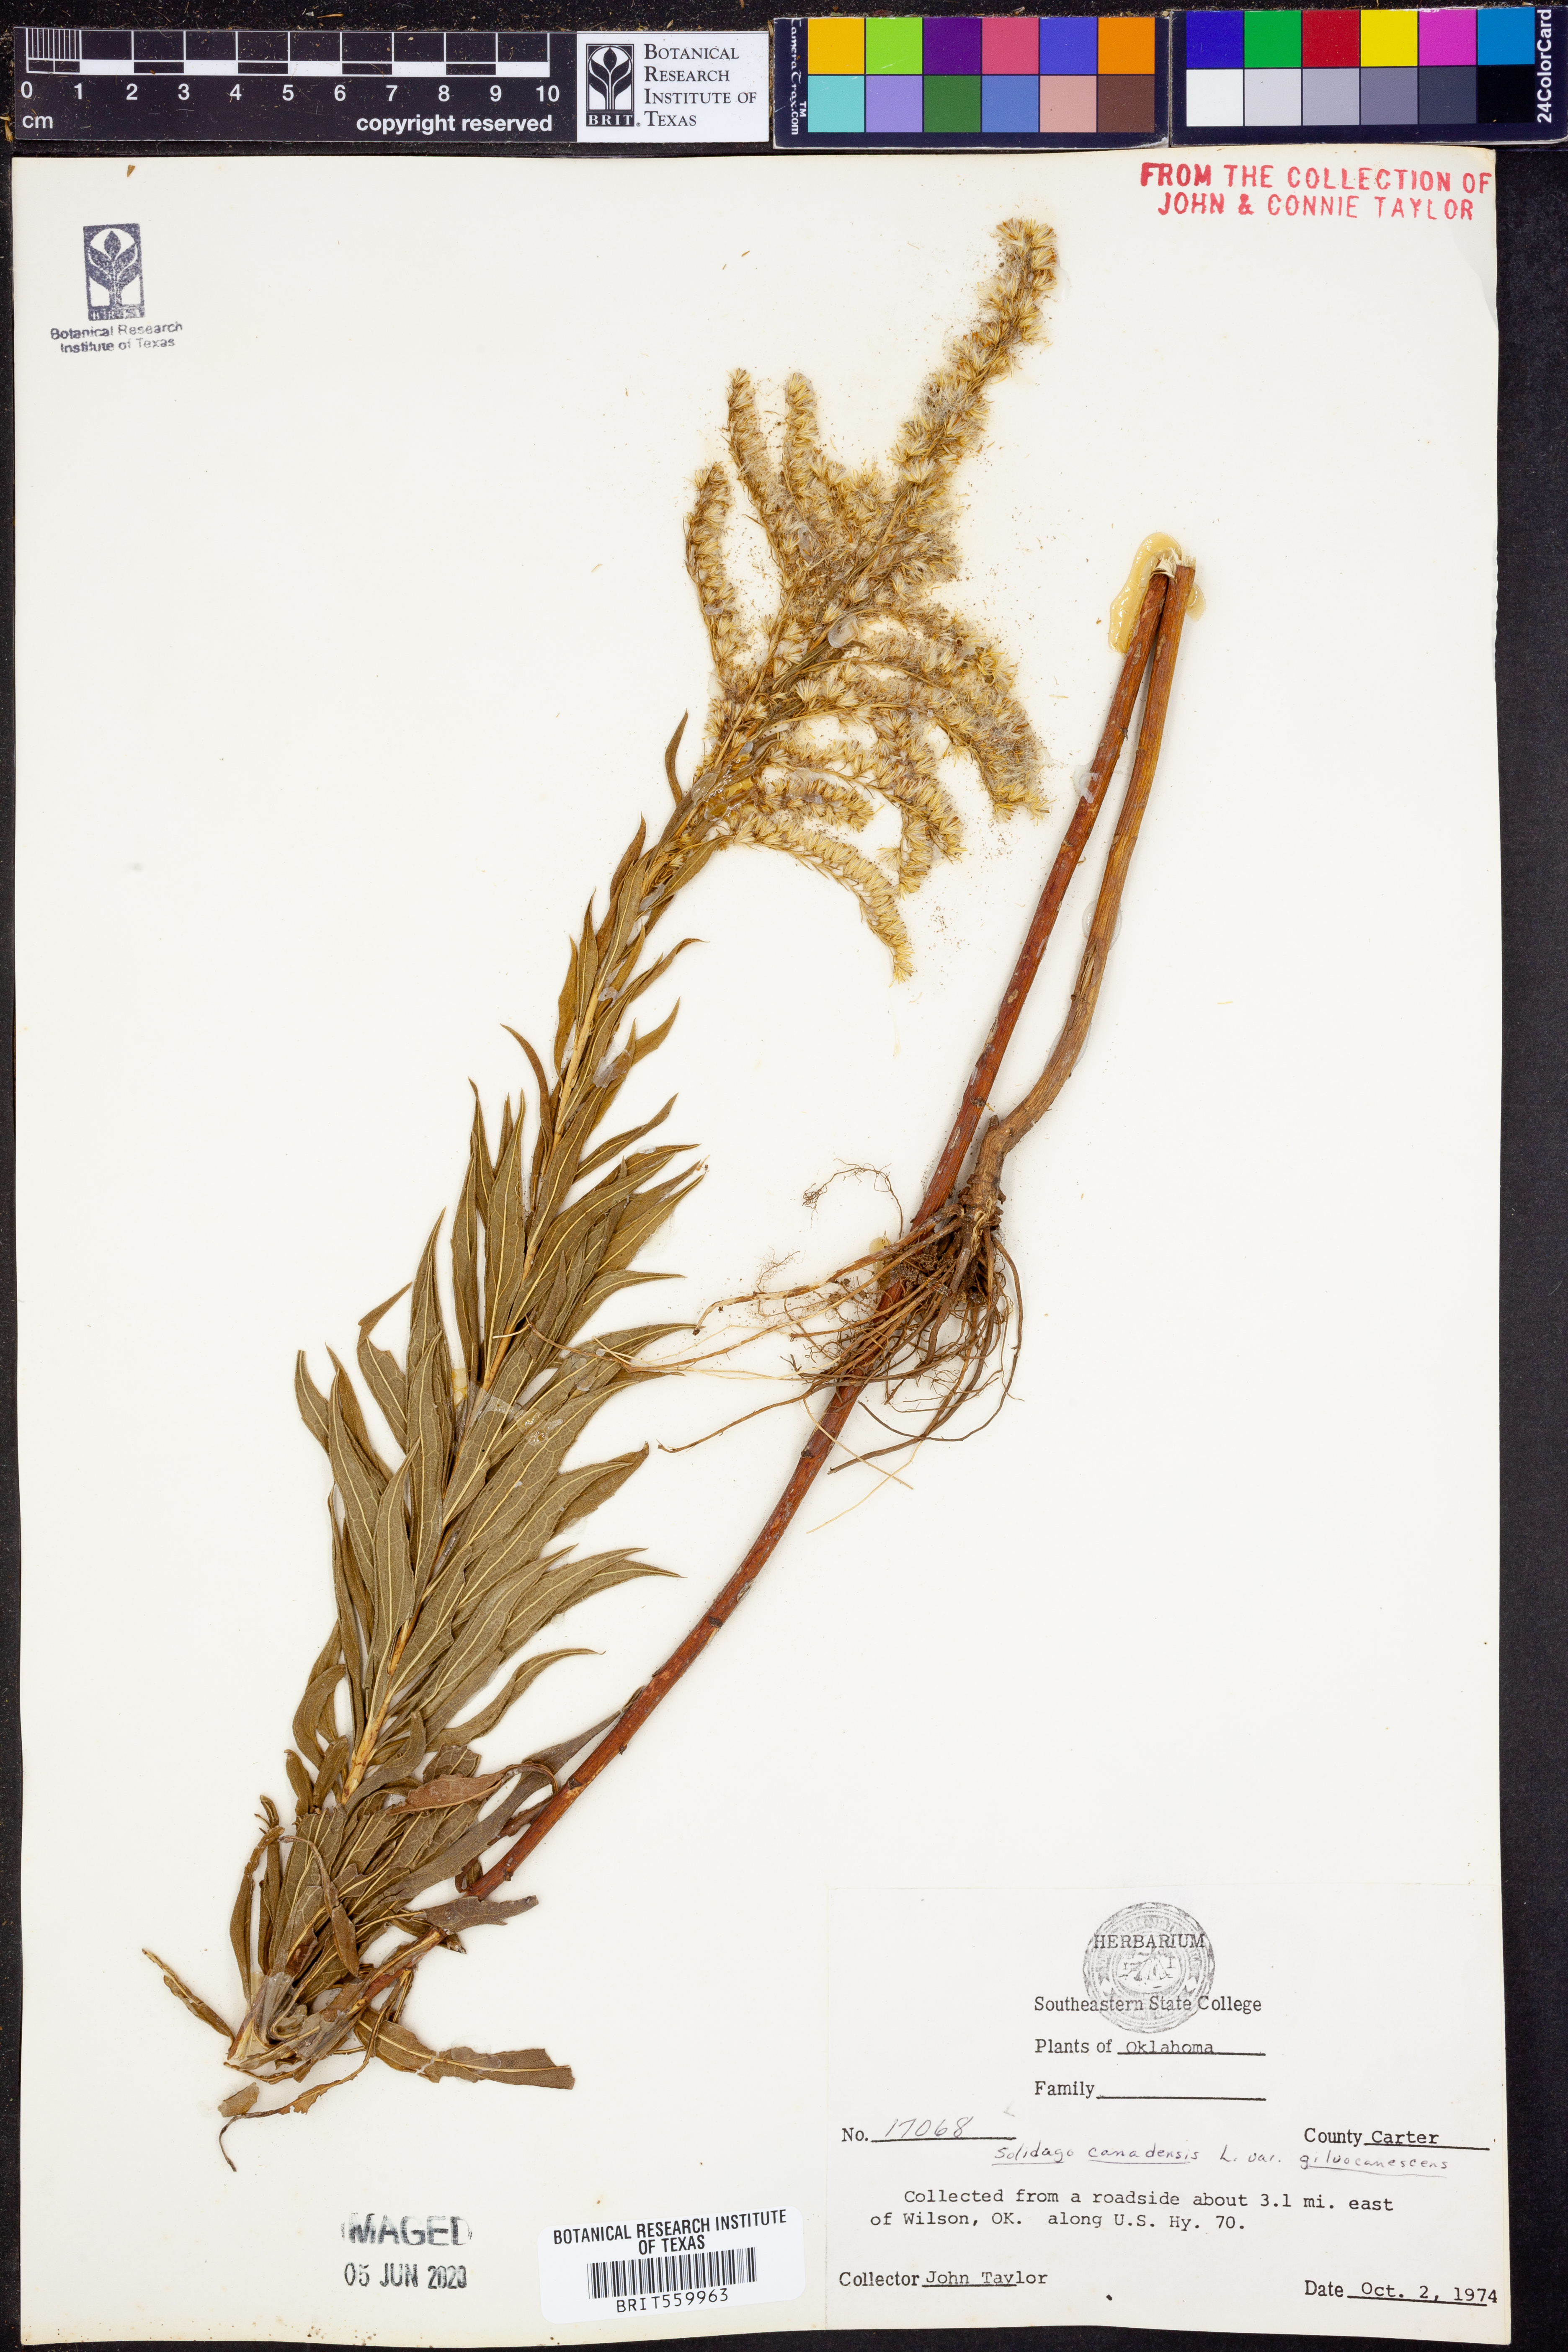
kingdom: Plantae
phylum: Tracheophyta
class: Magnoliopsida
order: Asterales
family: Asteraceae
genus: Solidago
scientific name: Solidago altissima
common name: Late goldenrod
